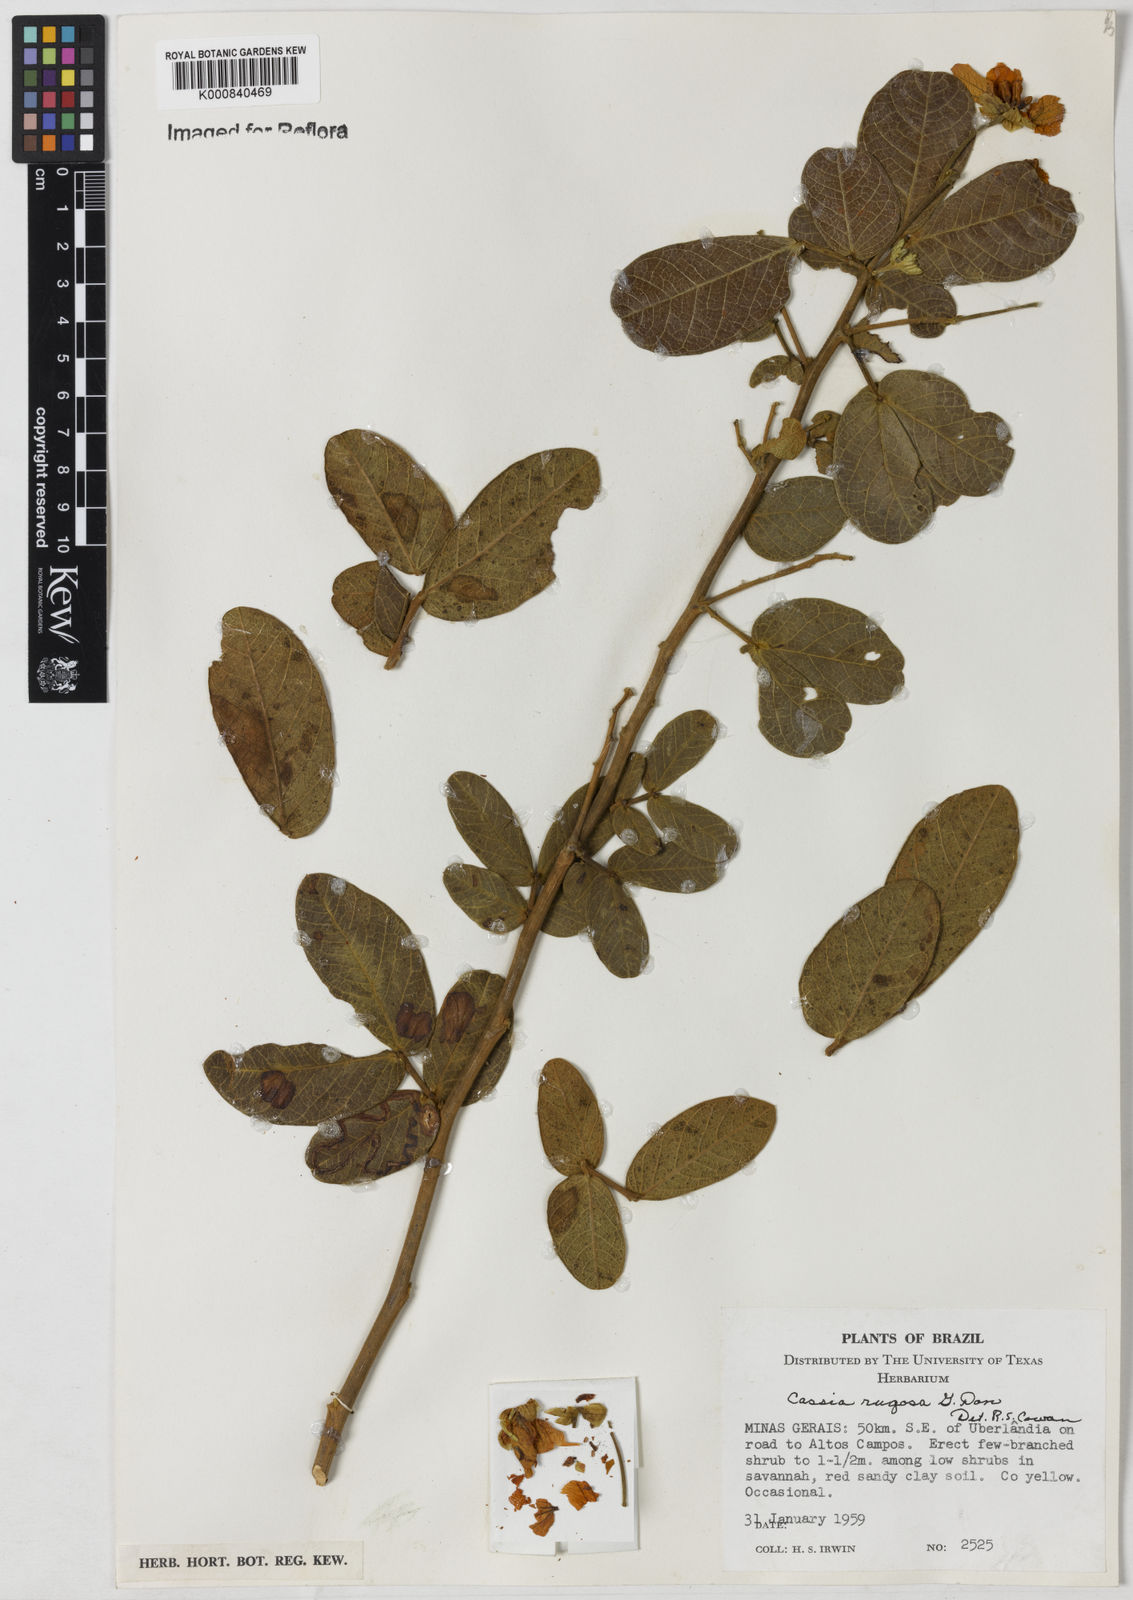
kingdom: Plantae
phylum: Tracheophyta
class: Magnoliopsida
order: Fabales
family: Fabaceae
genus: Senna
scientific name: Senna rugosa
